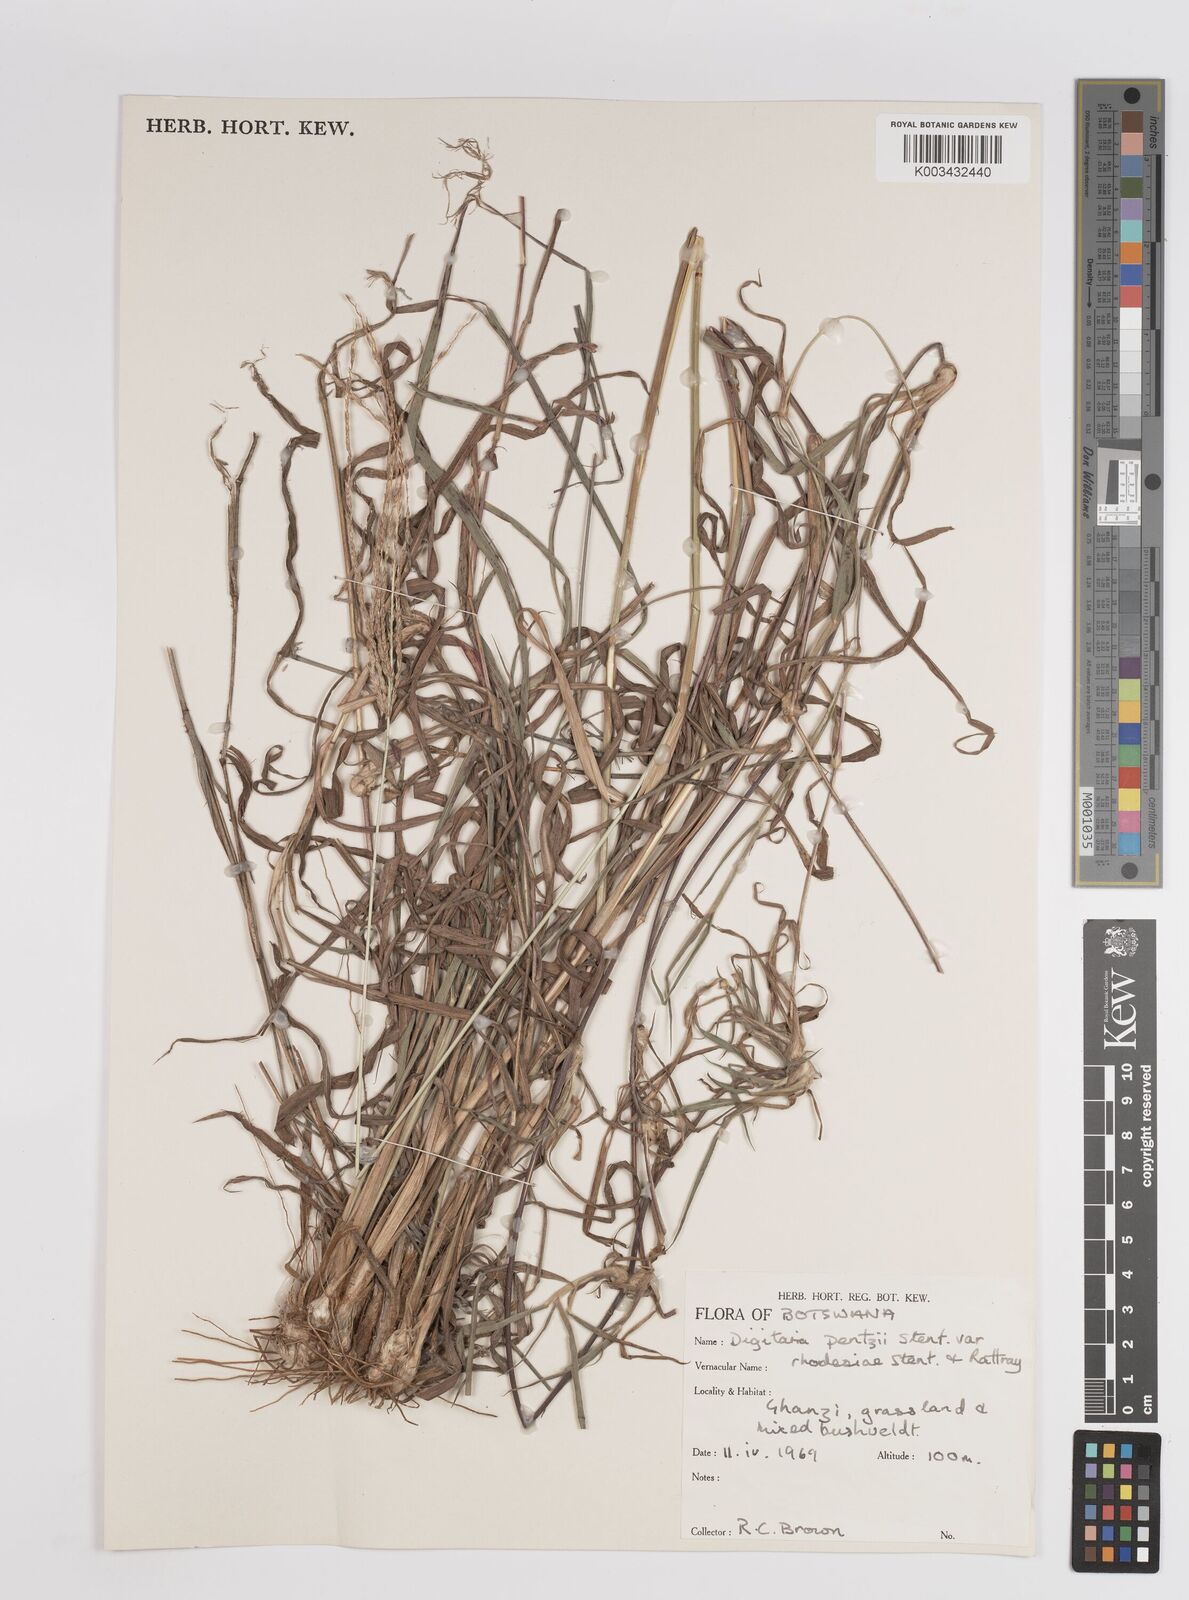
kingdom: Plantae
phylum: Tracheophyta
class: Liliopsida
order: Poales
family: Poaceae
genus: Digitaria
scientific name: Digitaria eriantha
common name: Digitgrass
